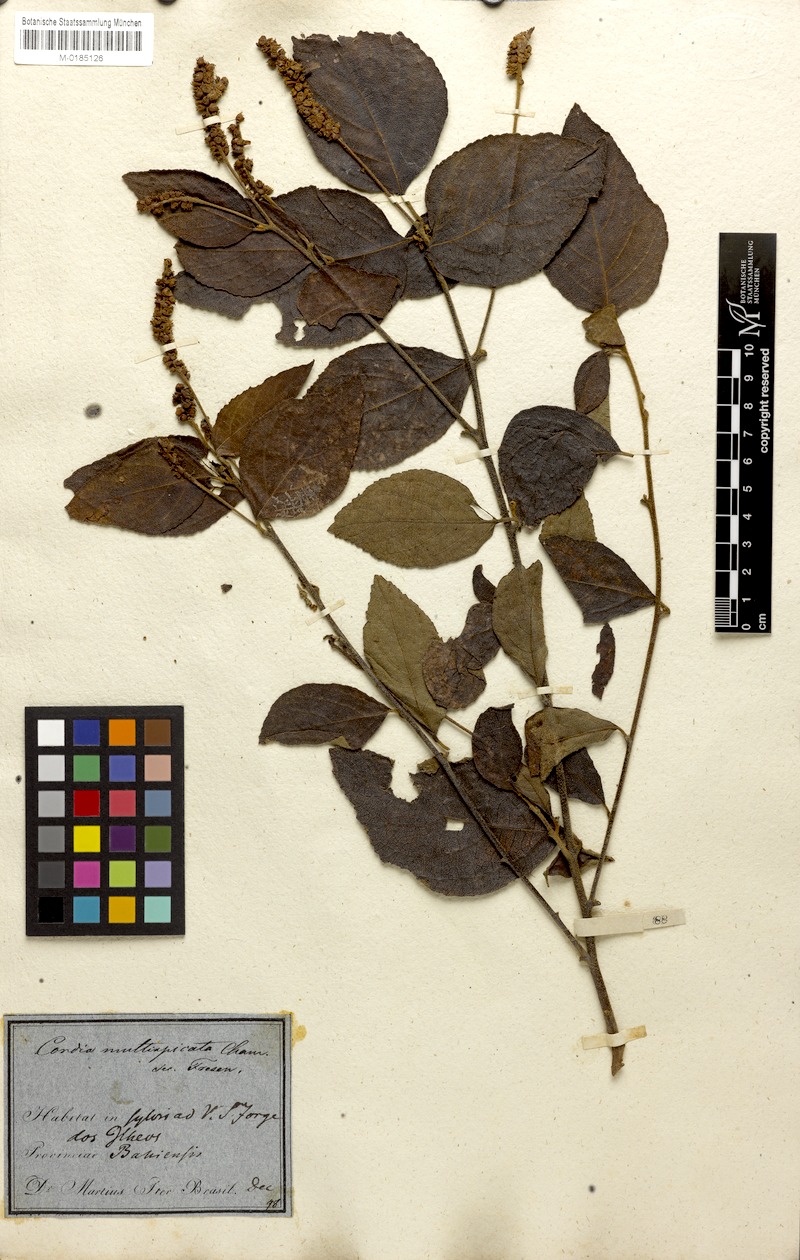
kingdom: Plantae
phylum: Tracheophyta
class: Magnoliopsida
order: Boraginales
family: Cordiaceae
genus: Varronia
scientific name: Varronia multispicata
